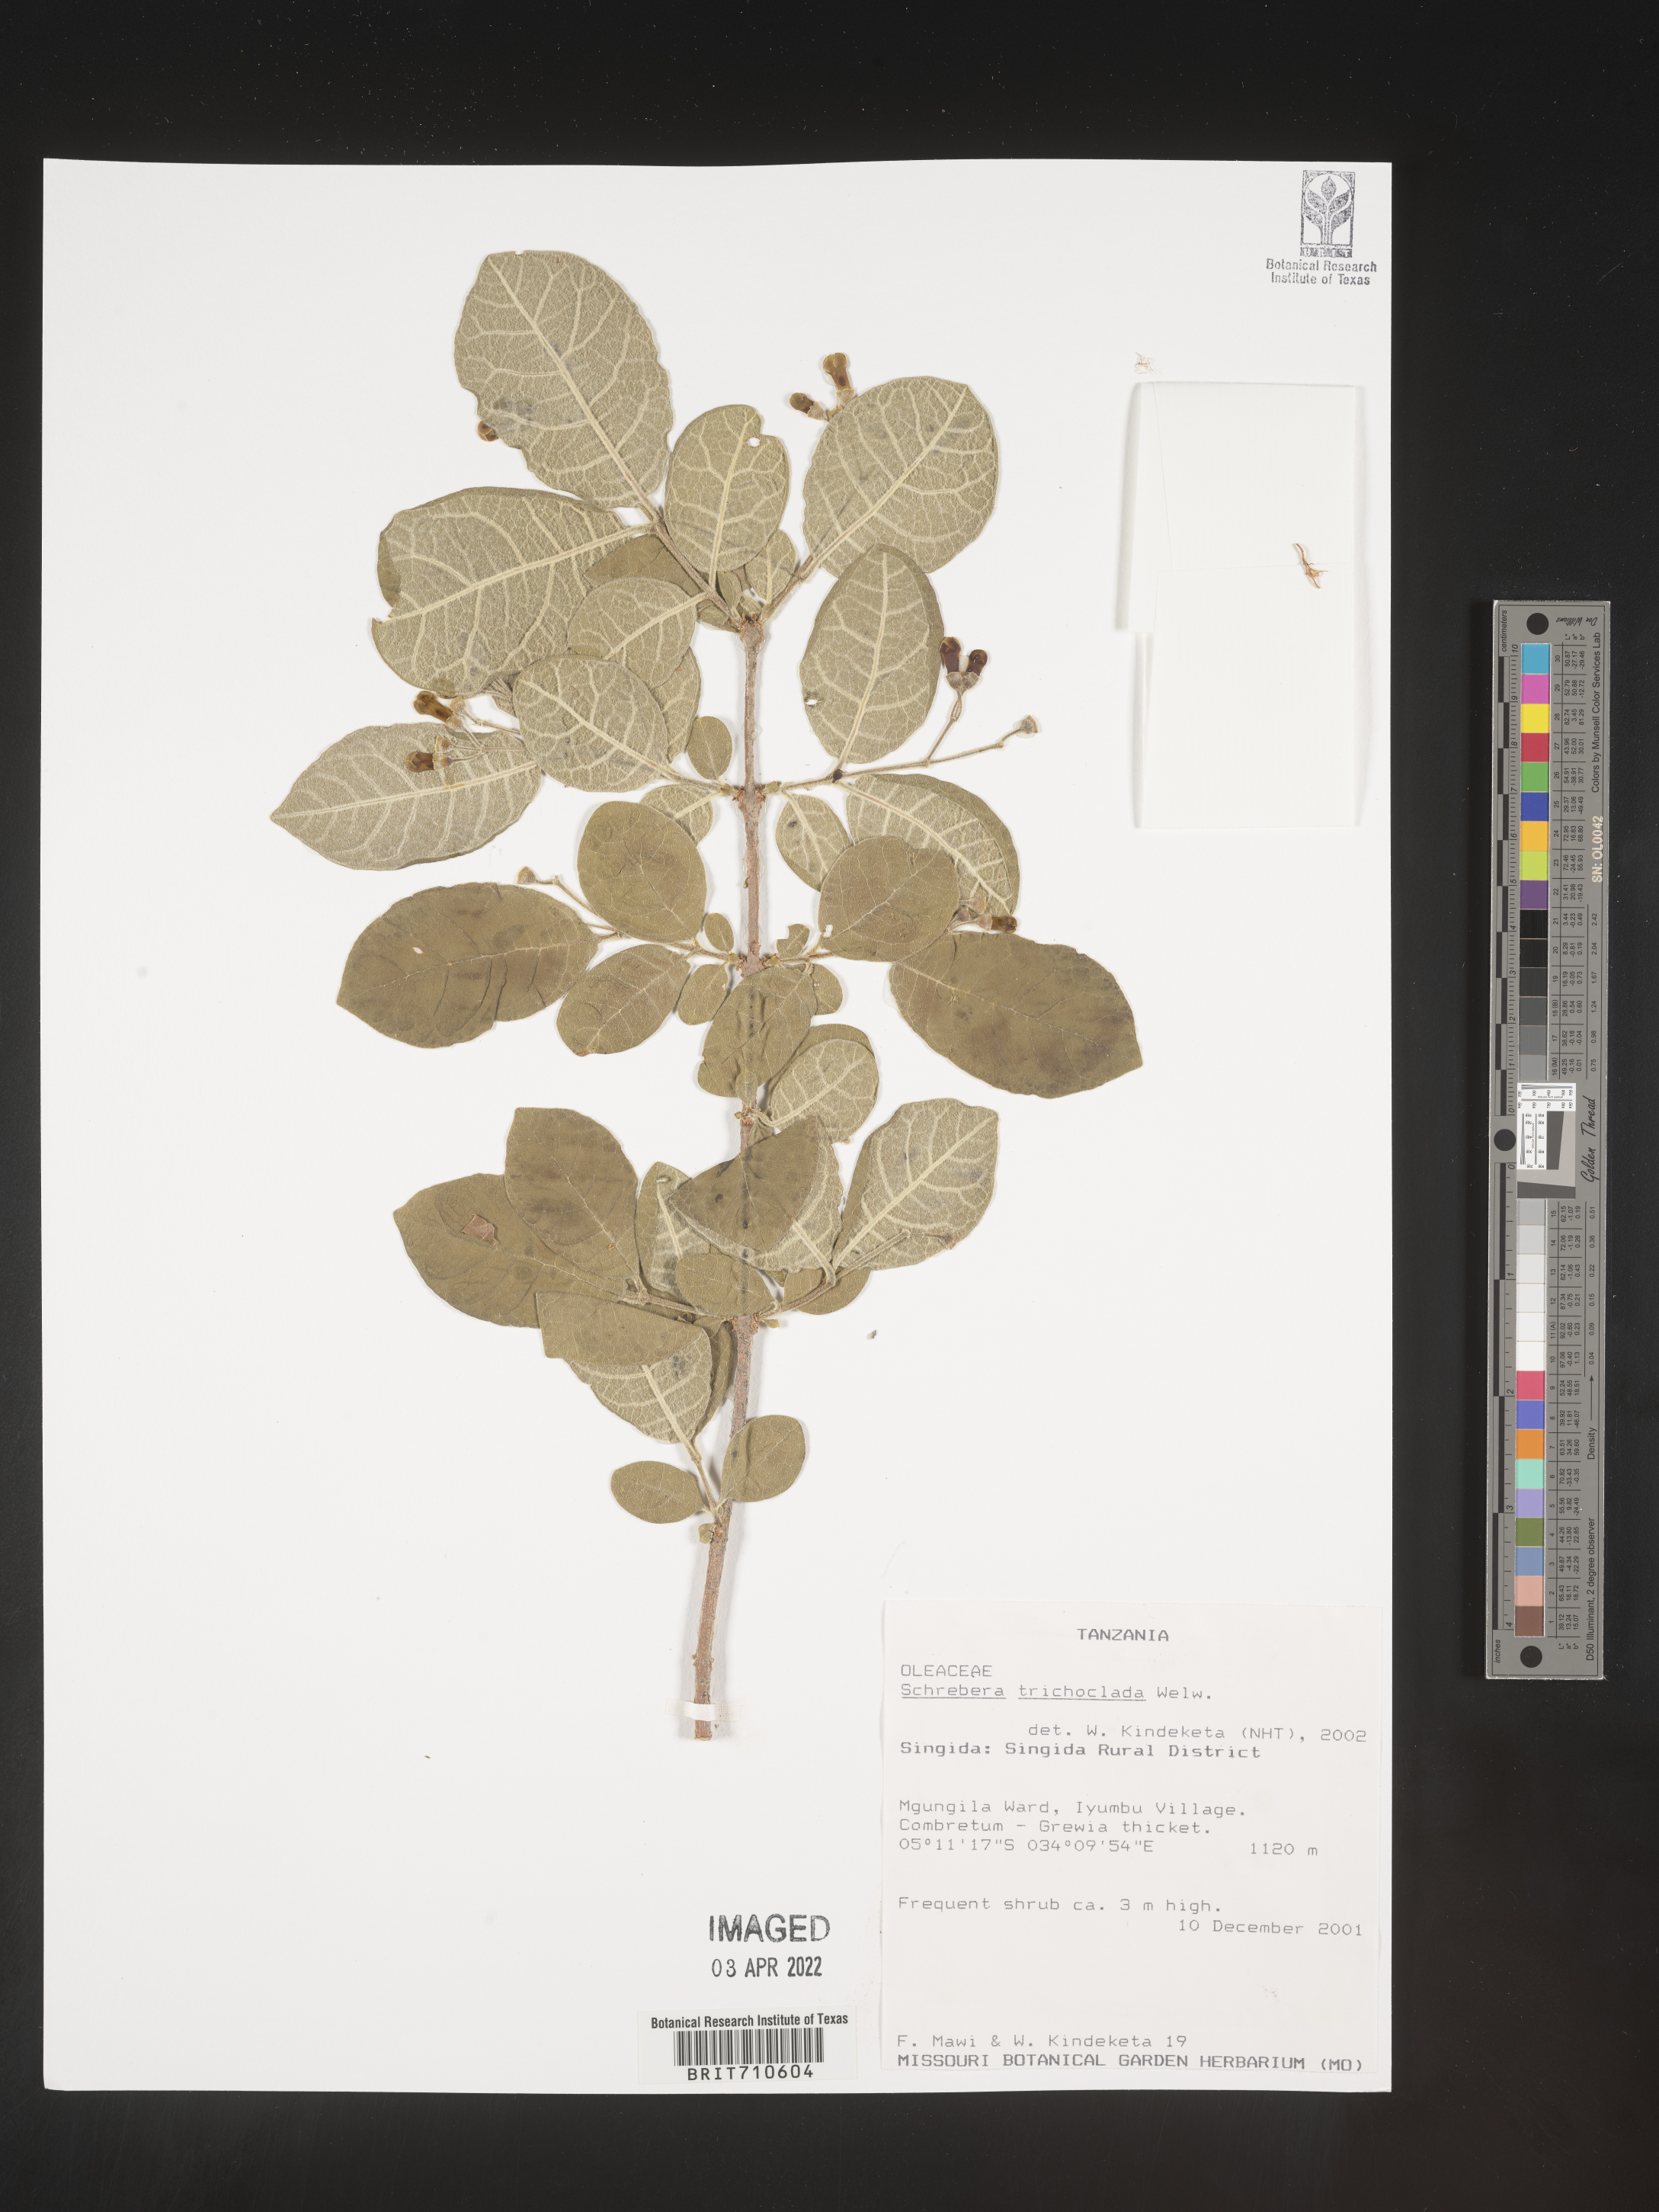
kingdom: Plantae
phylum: Tracheophyta
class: Magnoliopsida
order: Lamiales
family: Oleaceae
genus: Schrebera
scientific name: Schrebera trichoclada
